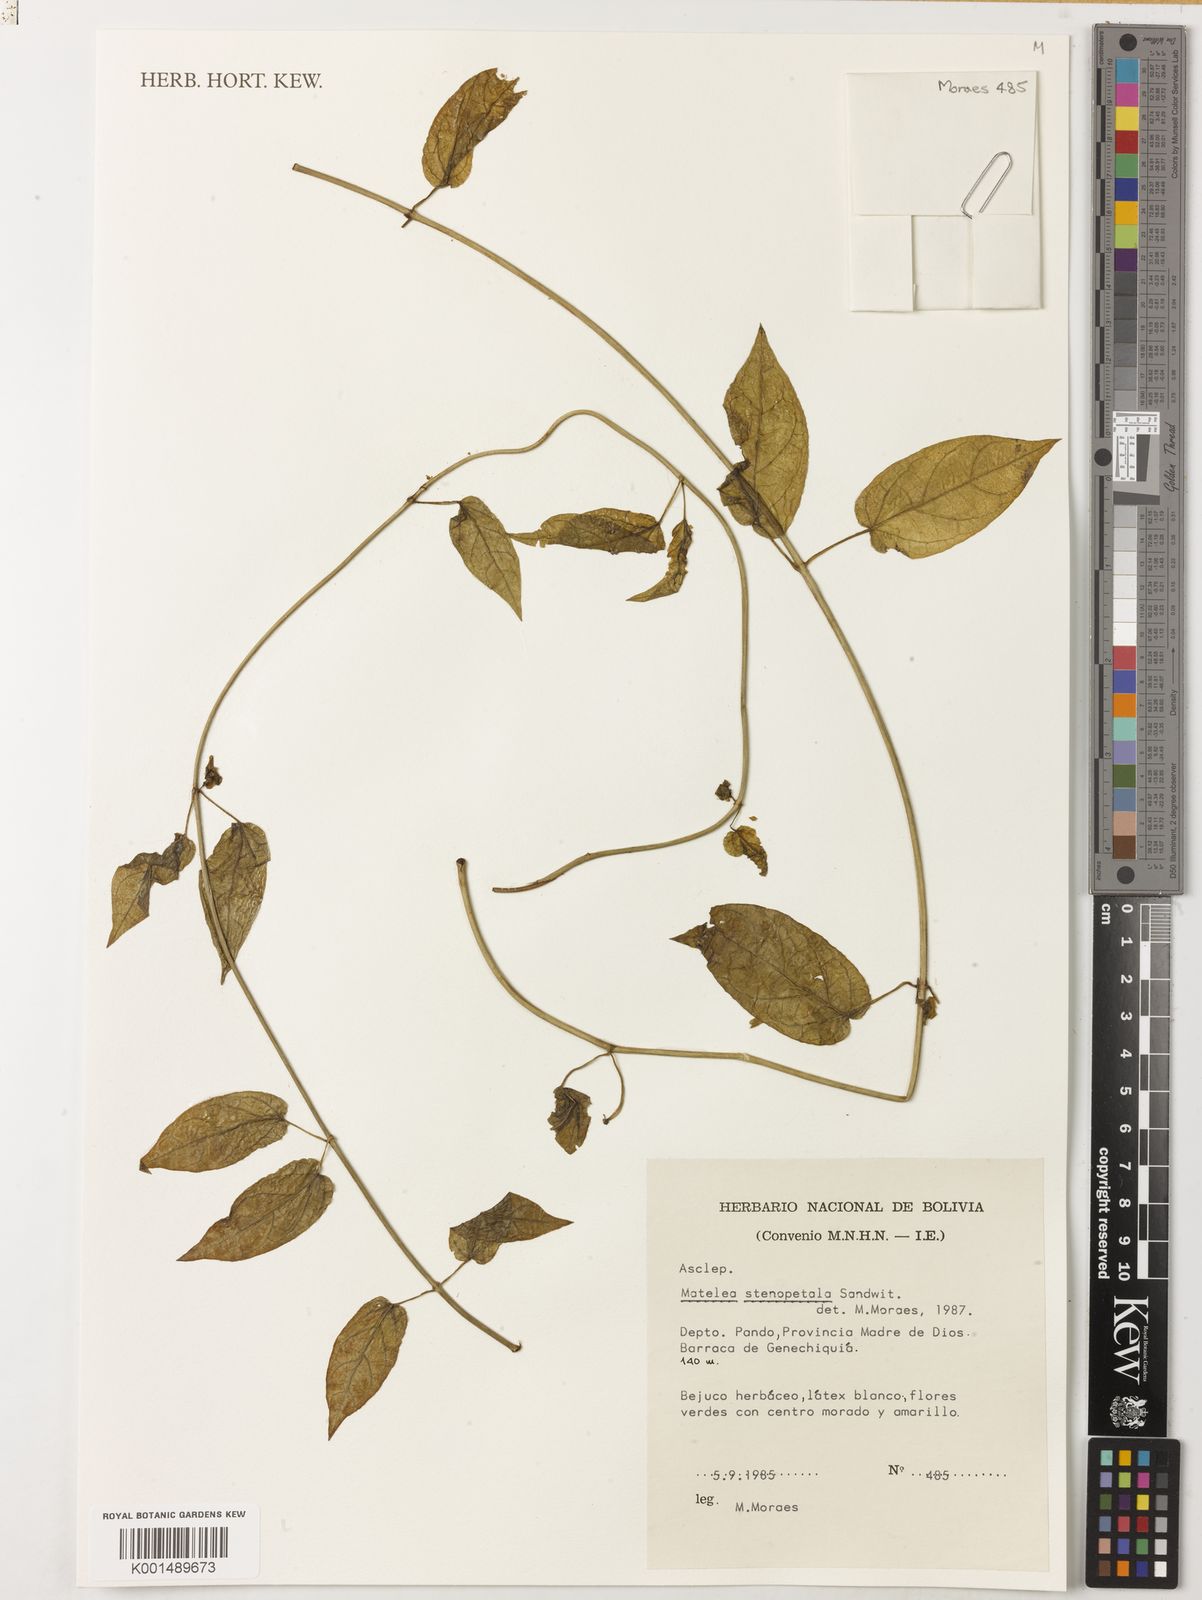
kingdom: Plantae
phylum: Tracheophyta
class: Magnoliopsida
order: Gentianales
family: Apocynaceae
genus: Matelea
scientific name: Matelea stenopetala
